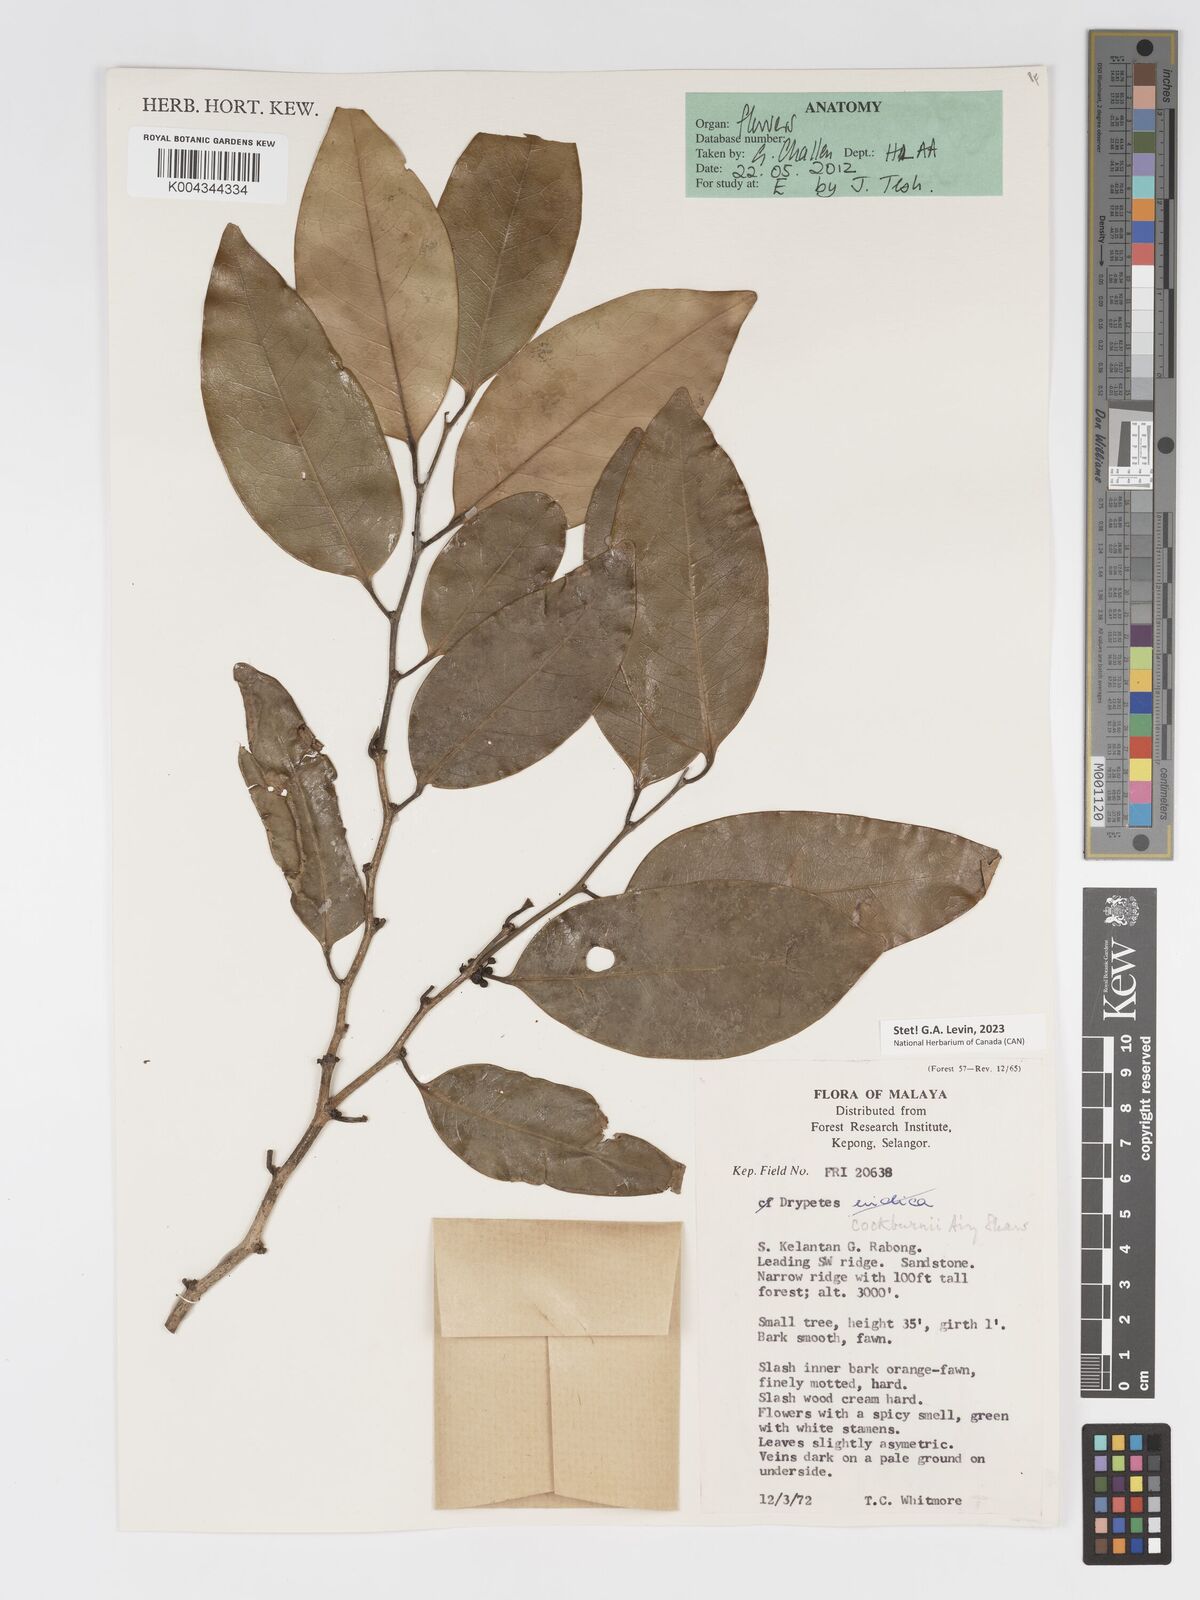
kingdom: Plantae
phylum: Tracheophyta
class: Magnoliopsida
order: Malpighiales
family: Putranjivaceae
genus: Drypetes
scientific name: Drypetes cockburnii
